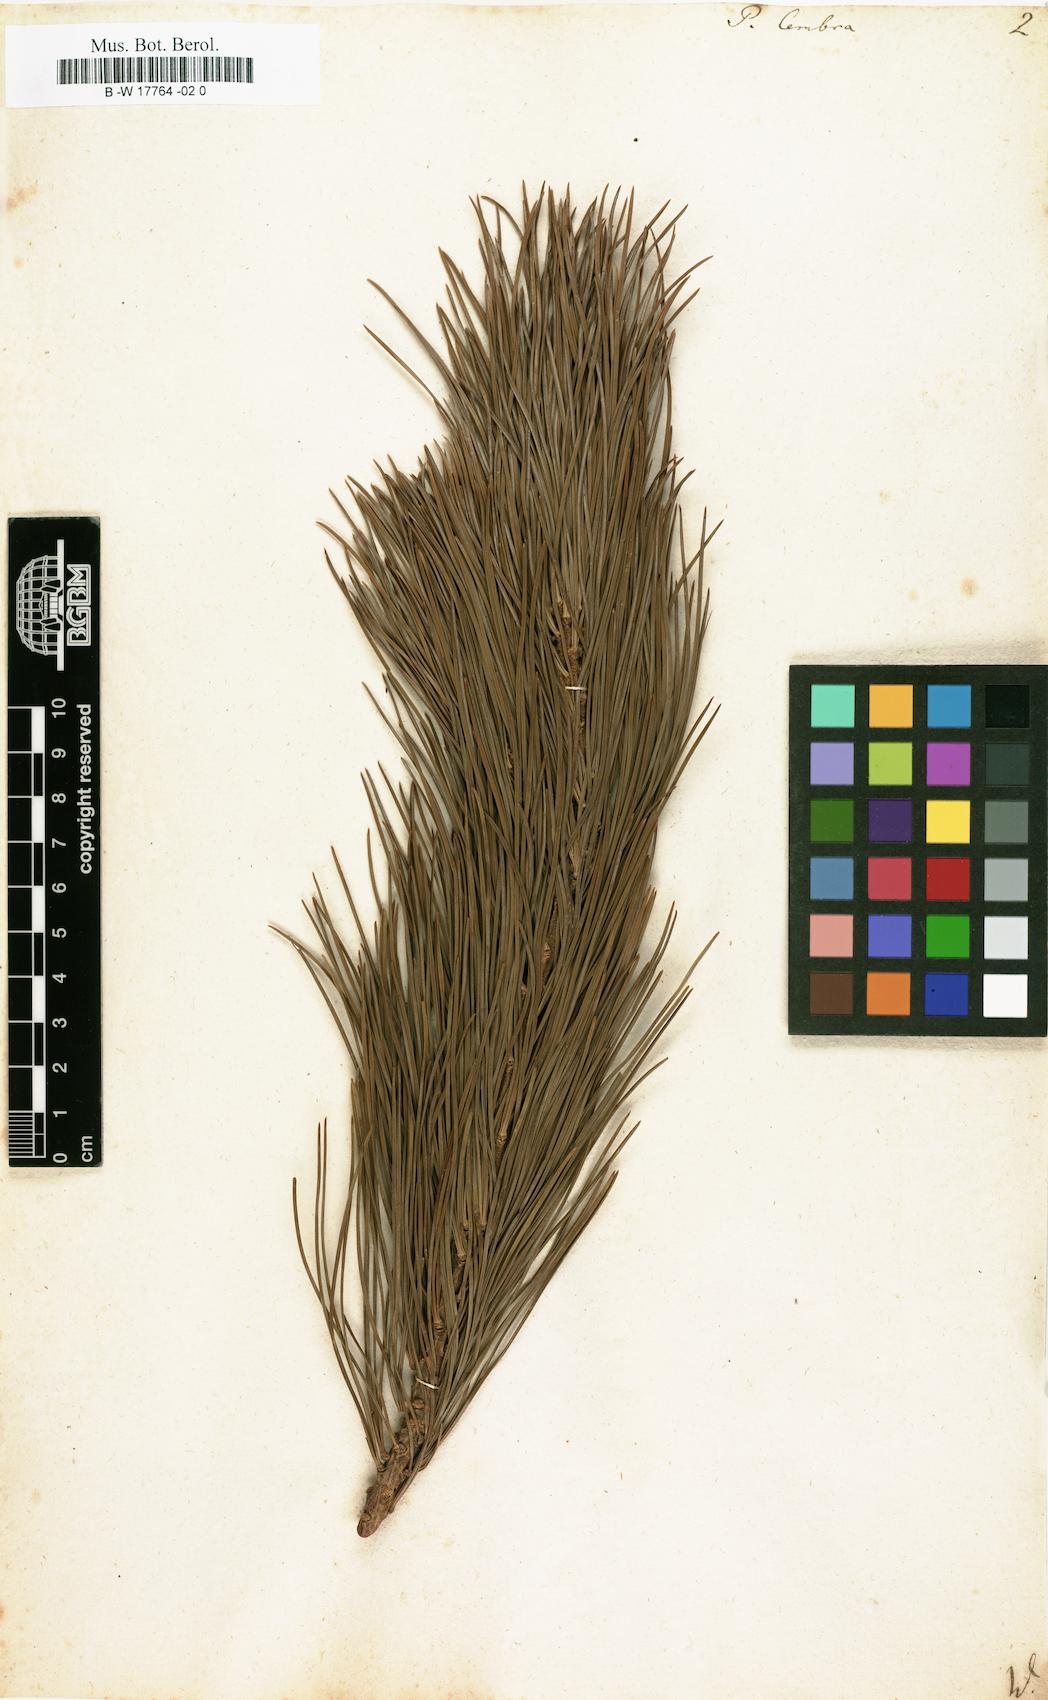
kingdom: Plantae
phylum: Tracheophyta
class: Pinopsida
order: Pinales
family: Pinaceae
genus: Pinus
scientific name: Pinus cembra
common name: Arolla pine
